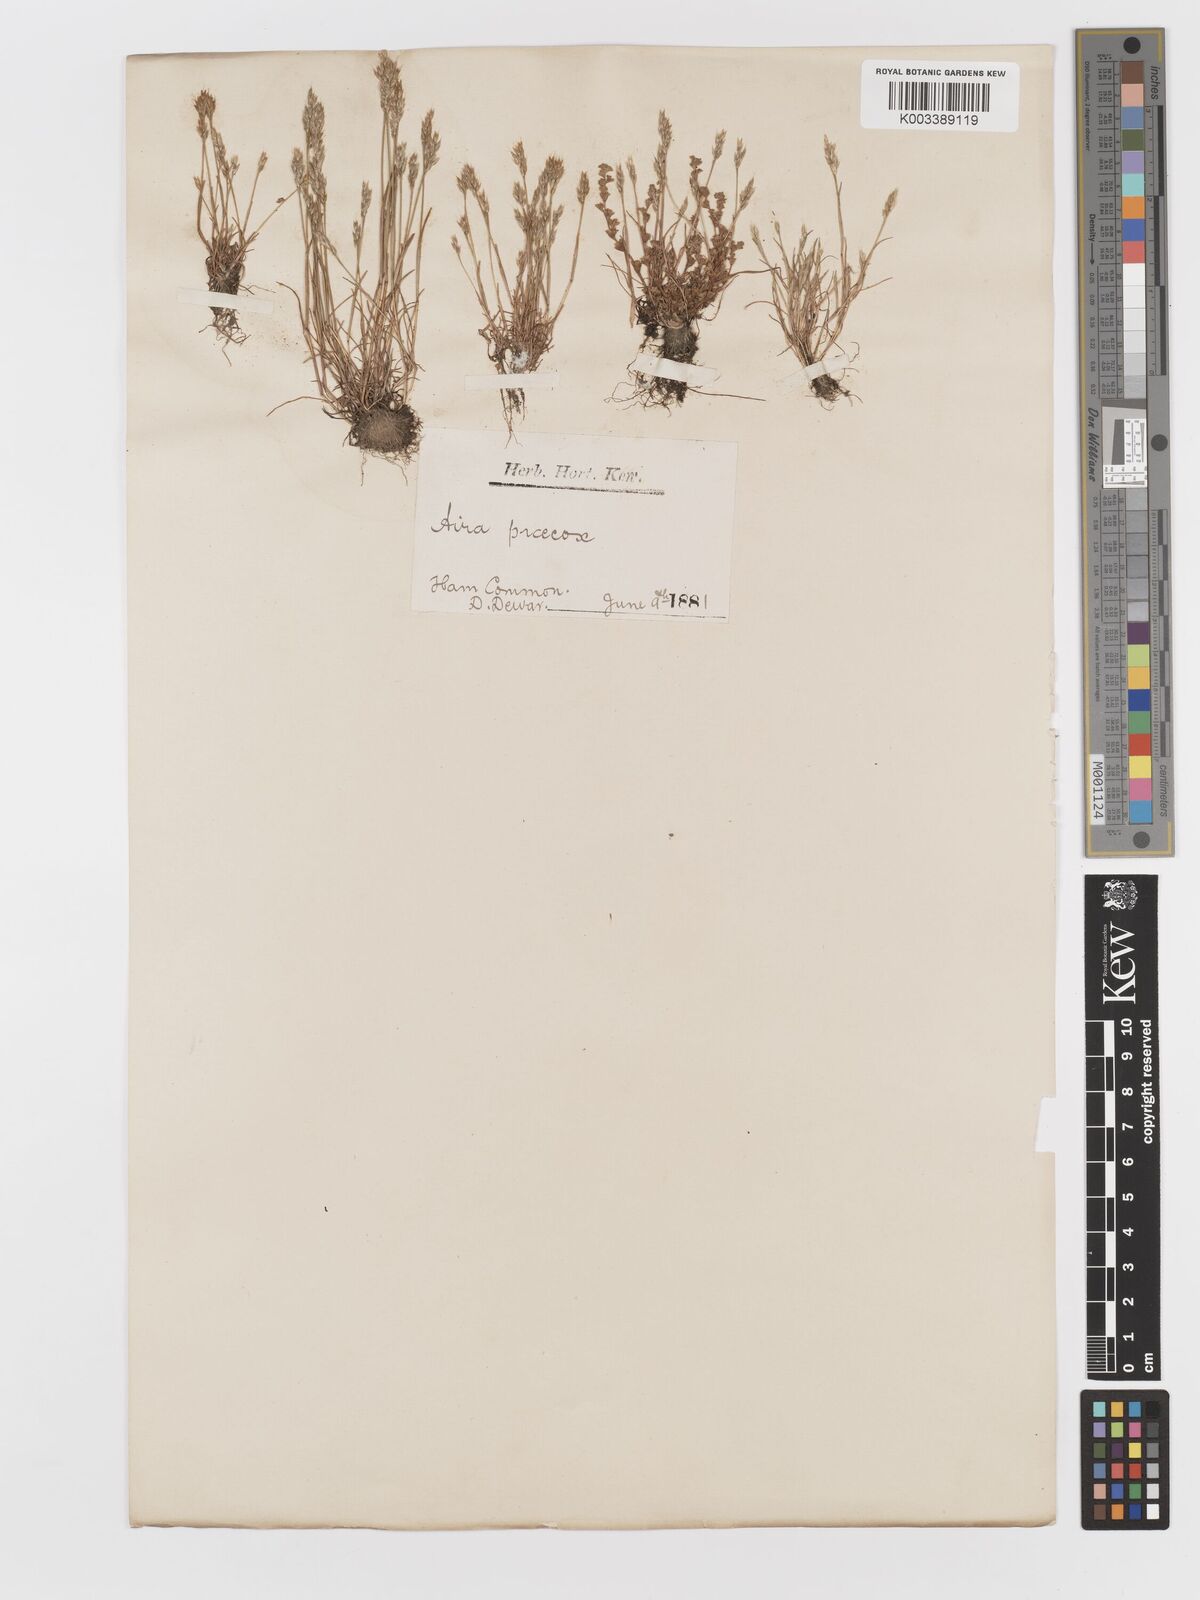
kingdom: Plantae
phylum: Tracheophyta
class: Liliopsida
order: Poales
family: Poaceae
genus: Aira
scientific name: Aira praecox
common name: Early hair-grass
